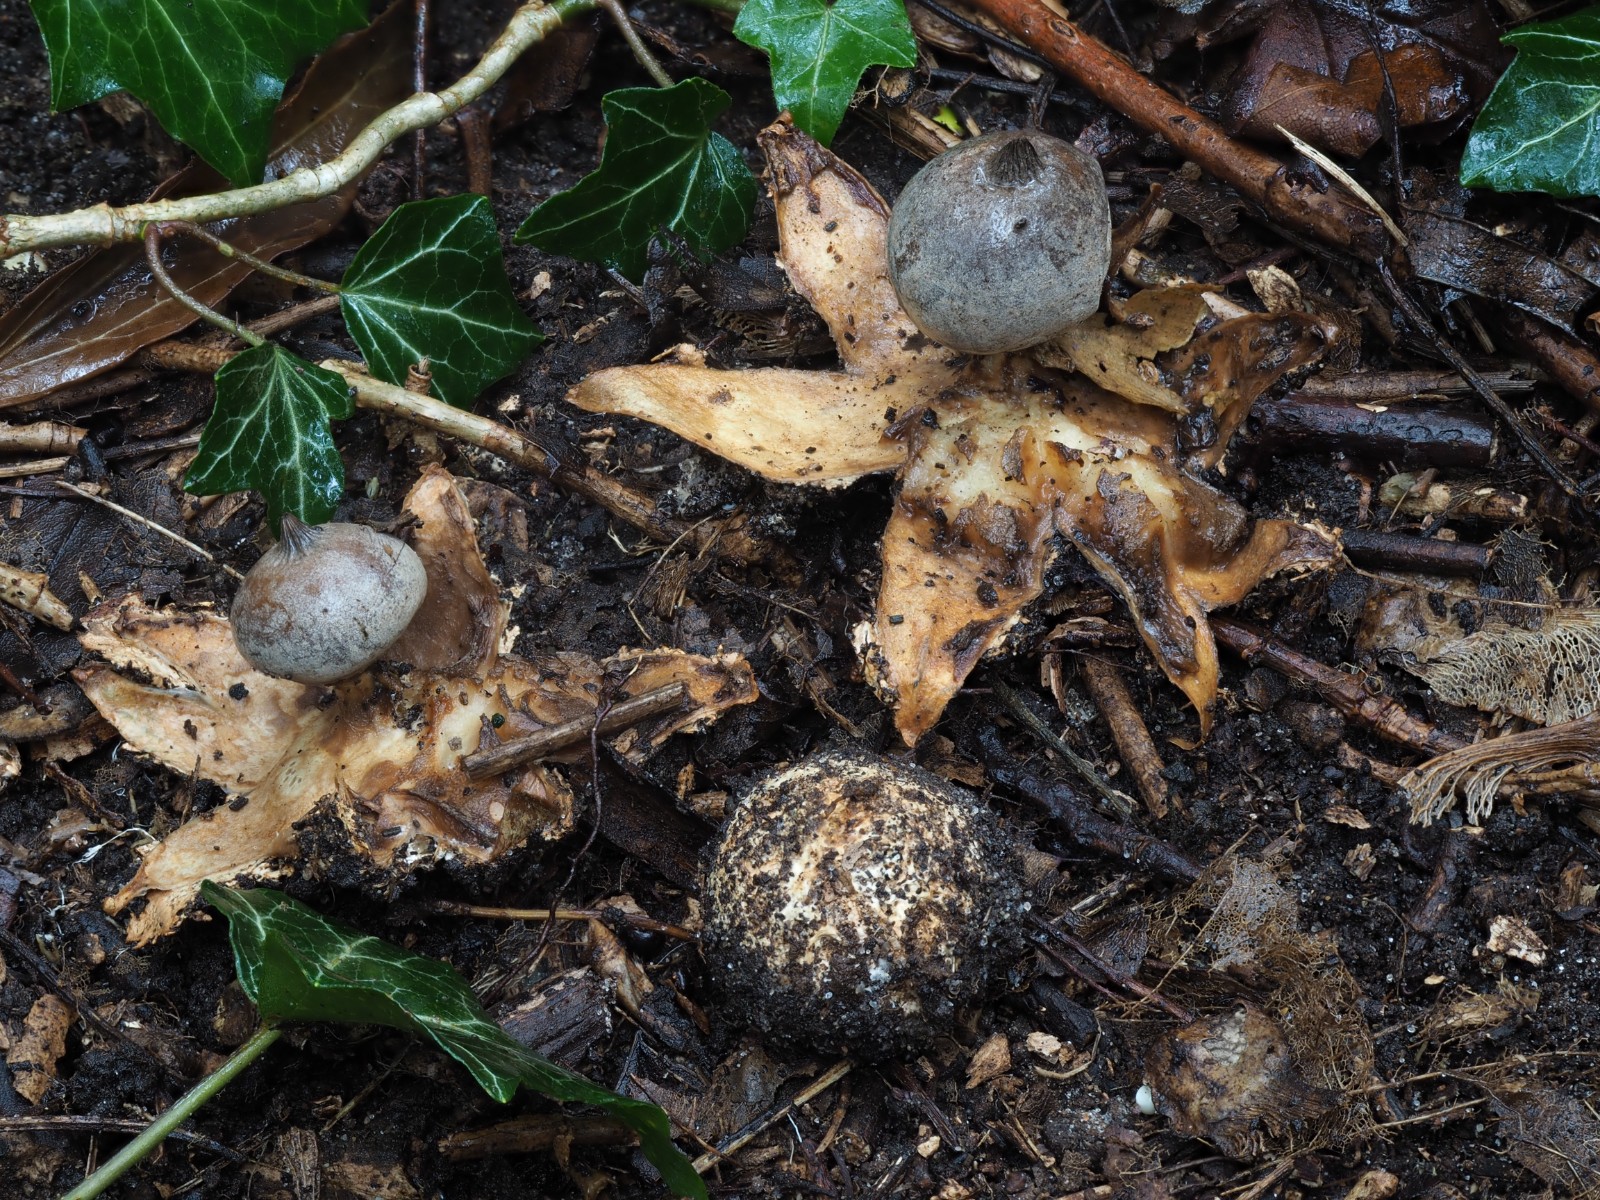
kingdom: Fungi
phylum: Basidiomycota
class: Agaricomycetes
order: Geastrales
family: Geastraceae
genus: Geastrum
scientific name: Geastrum pectinatum
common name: stilket stjernebold
